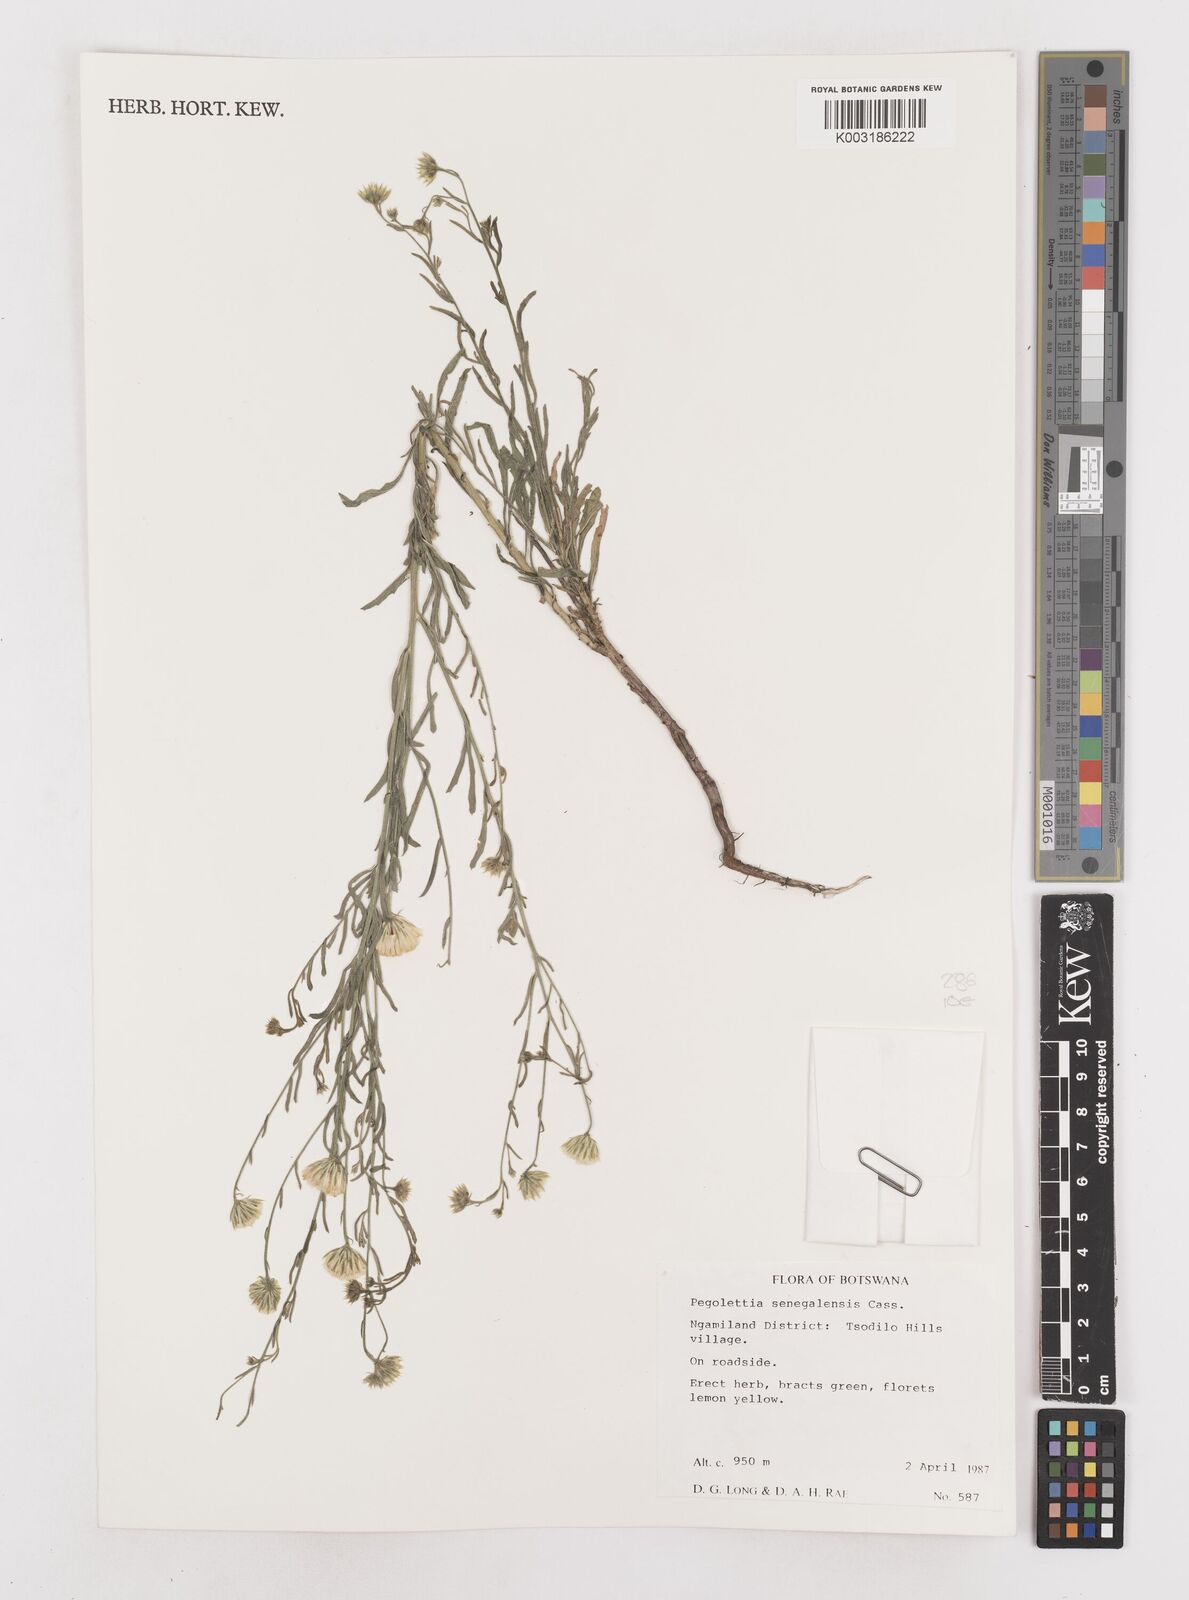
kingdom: Plantae
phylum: Tracheophyta
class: Magnoliopsida
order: Asterales
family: Asteraceae
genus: Pegolettia
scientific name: Pegolettia senegalensis
